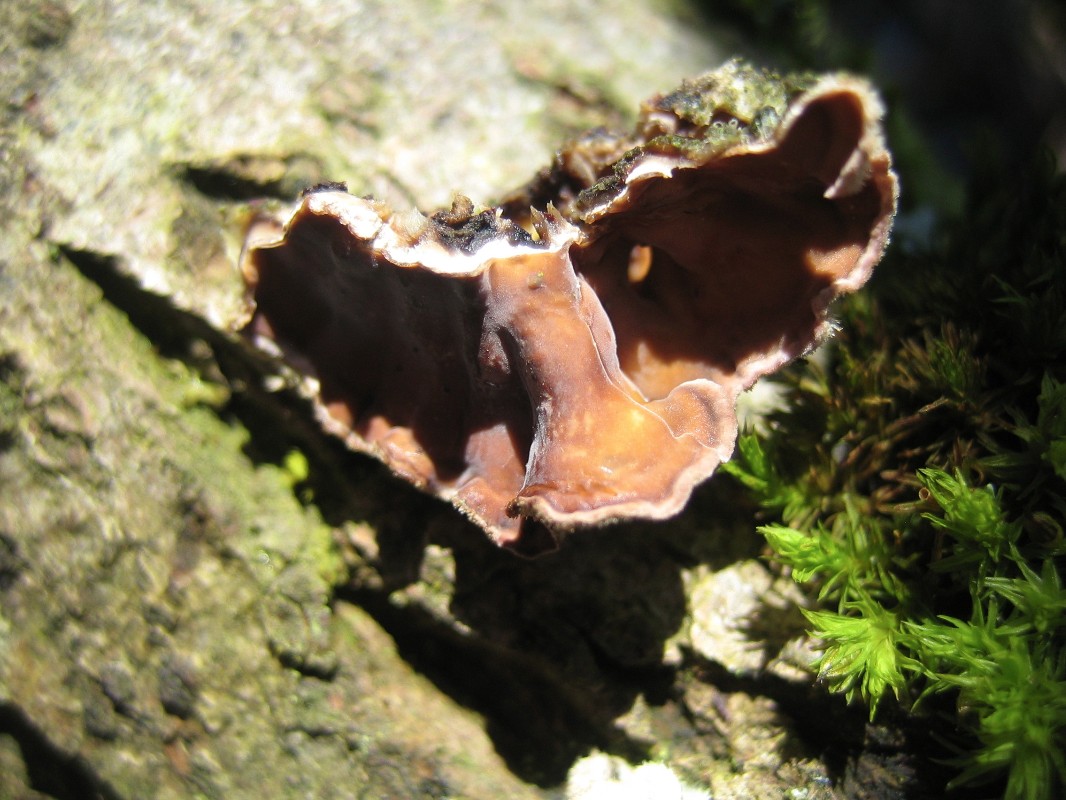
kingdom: Fungi
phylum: Basidiomycota
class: Agaricomycetes
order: Russulales
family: Stereaceae
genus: Stereum
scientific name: Stereum hirsutum
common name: håret lædersvamp
